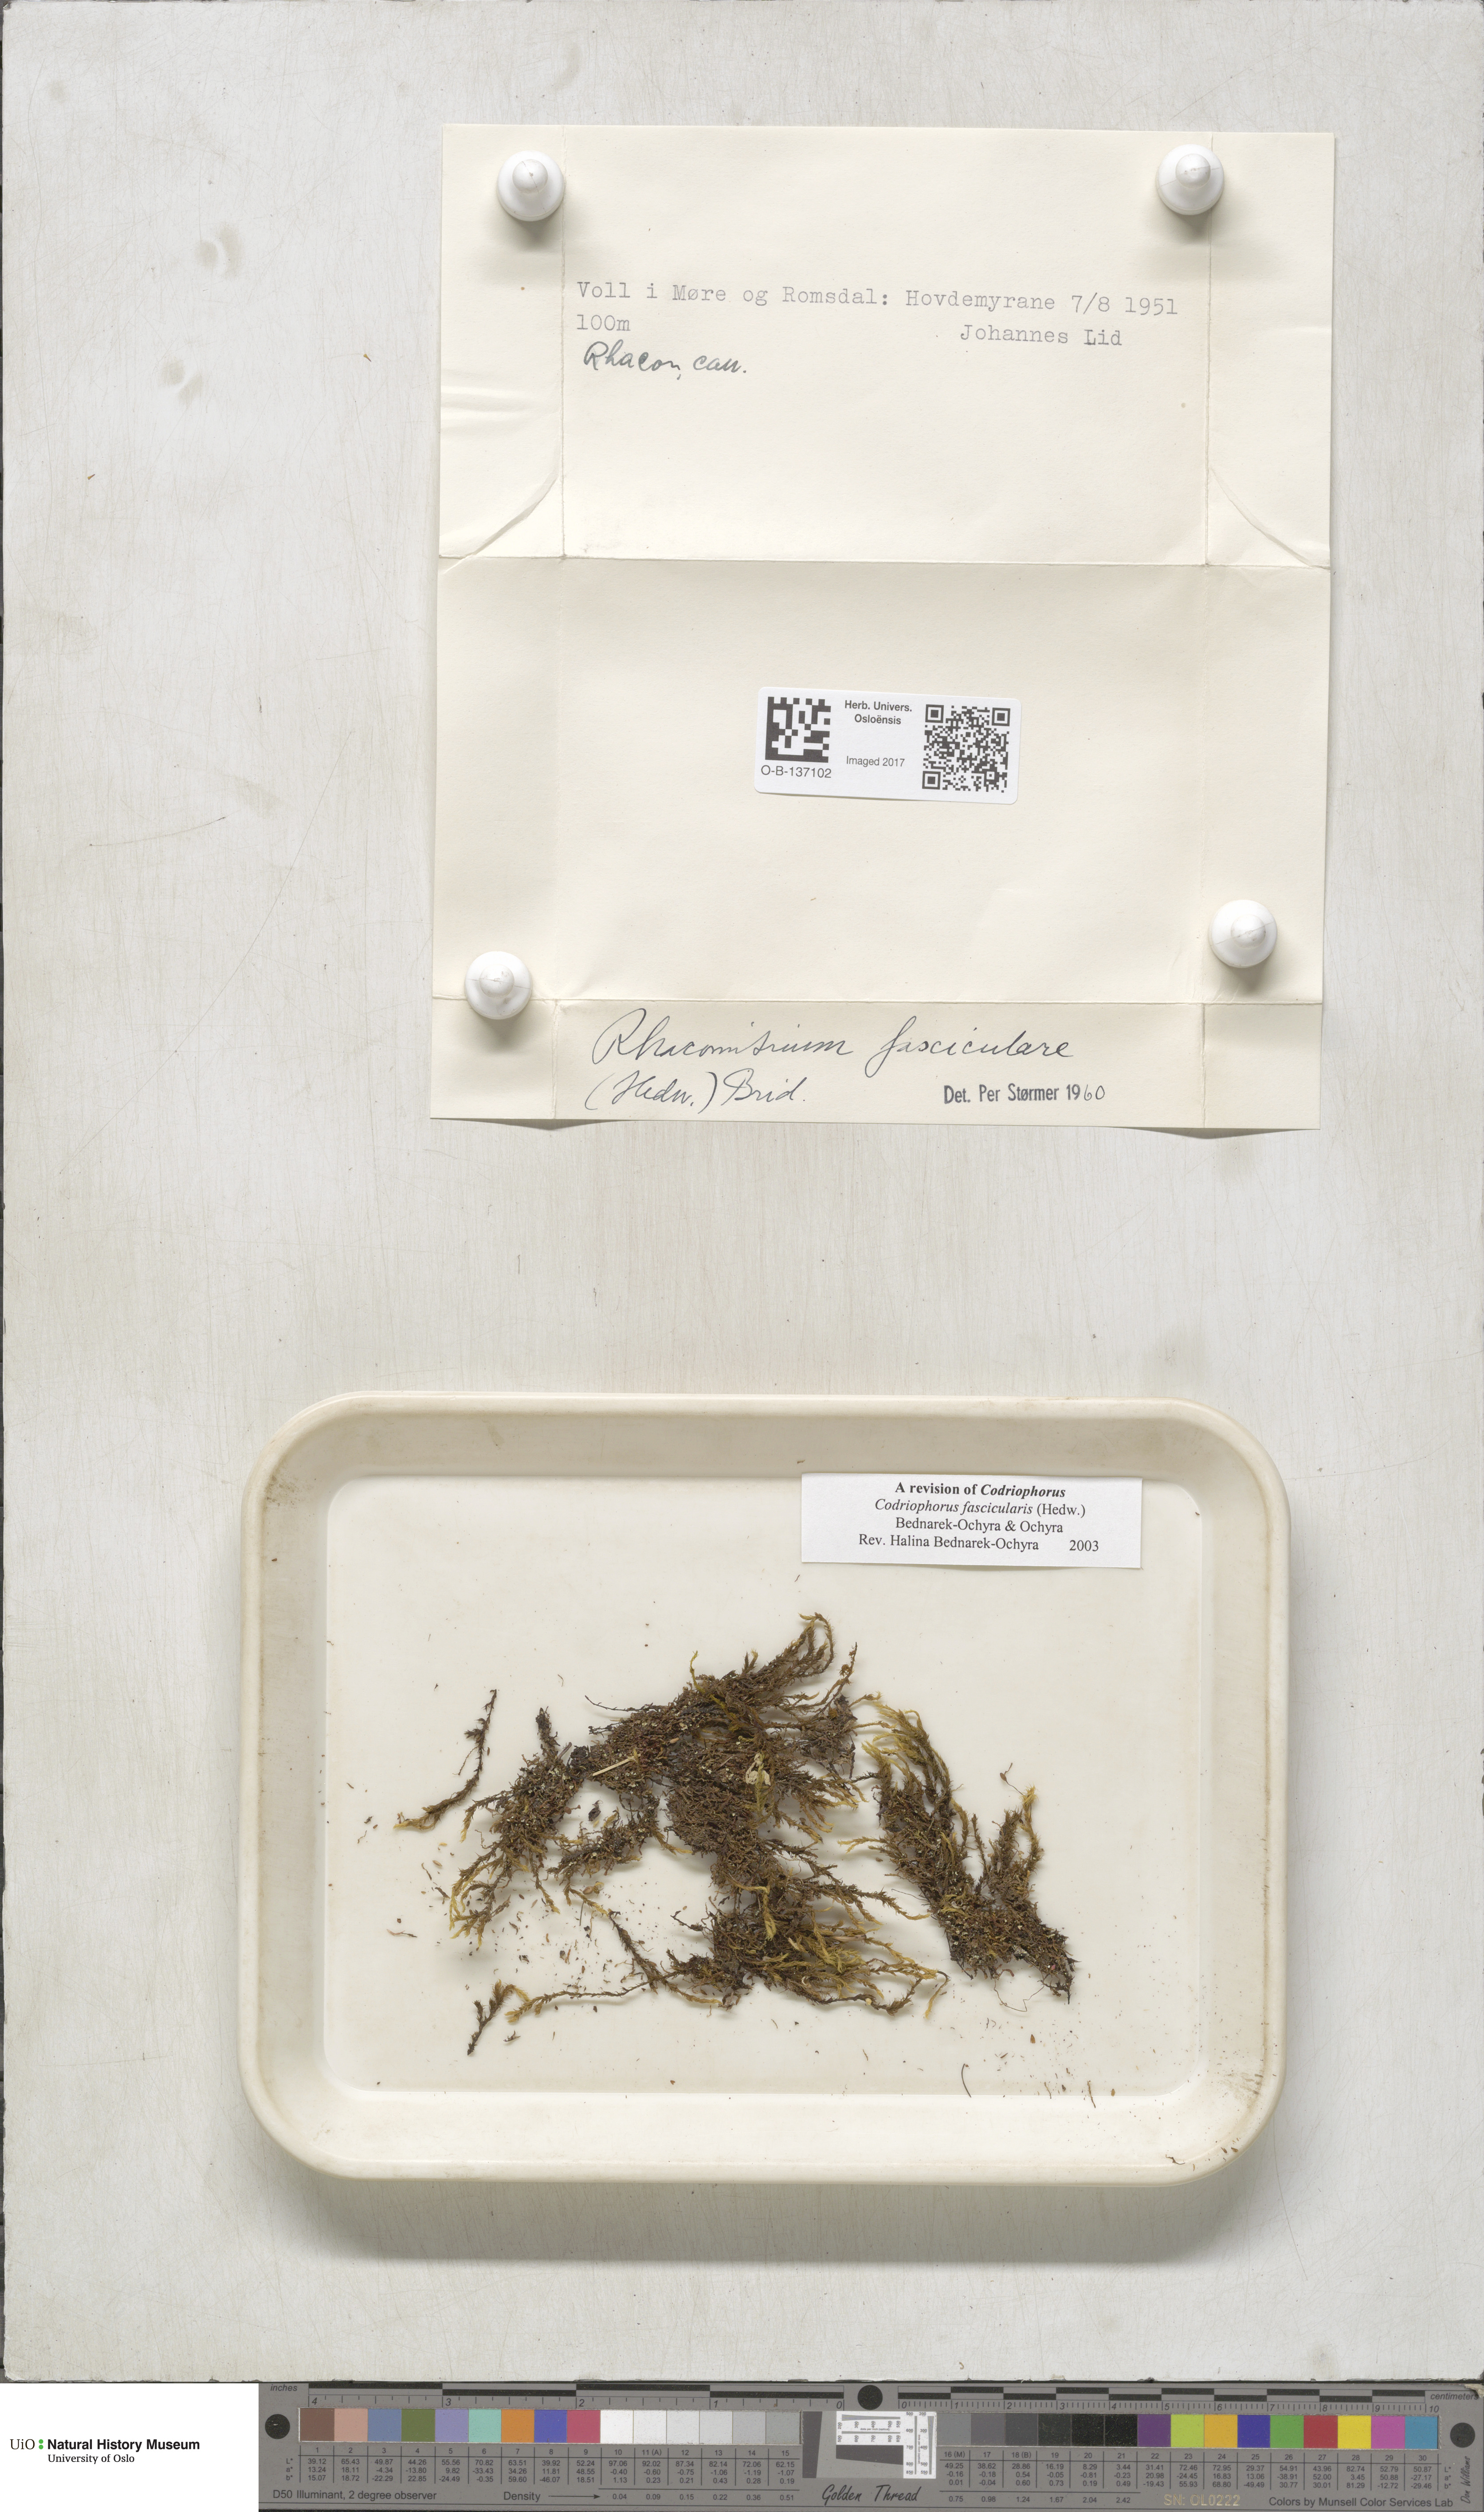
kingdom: Plantae
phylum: Bryophyta
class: Bryopsida
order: Grimmiales
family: Grimmiaceae
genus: Dilutineuron
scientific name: Dilutineuron fasciculare
